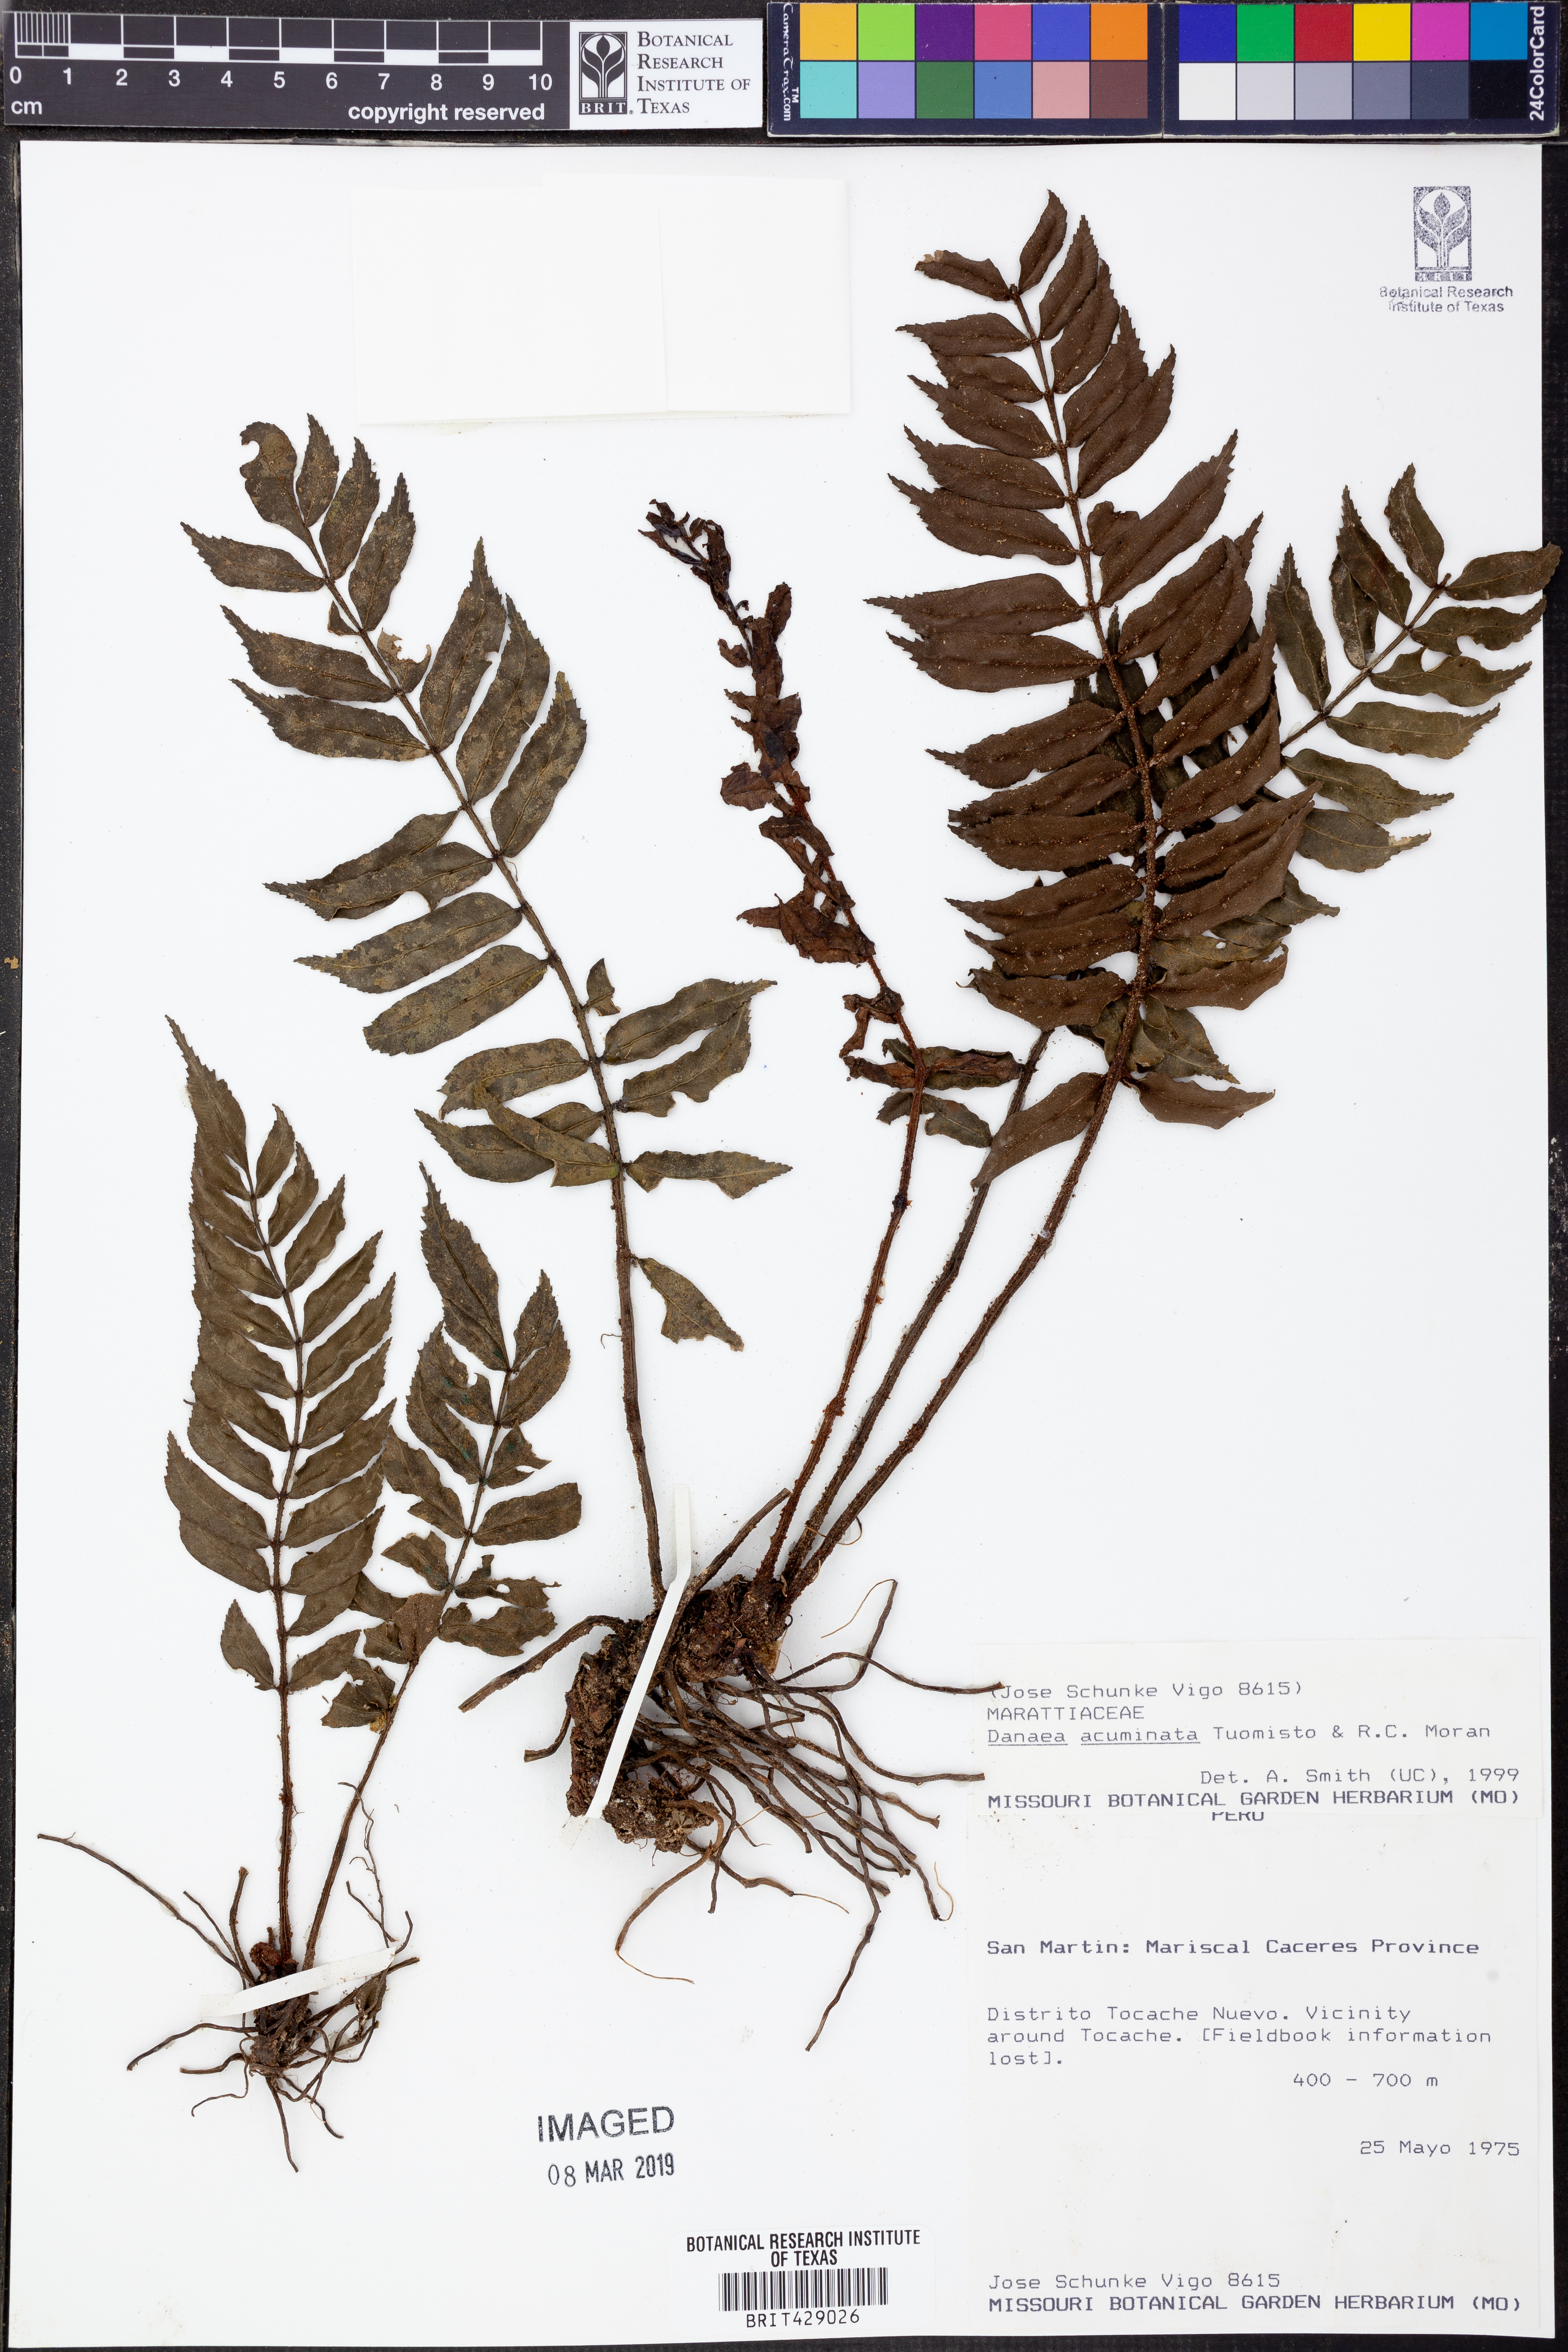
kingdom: Plantae
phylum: Tracheophyta
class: Polypodiopsida
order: Marattiales
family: Marattiaceae
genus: Danaea
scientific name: Danaea acuminata
